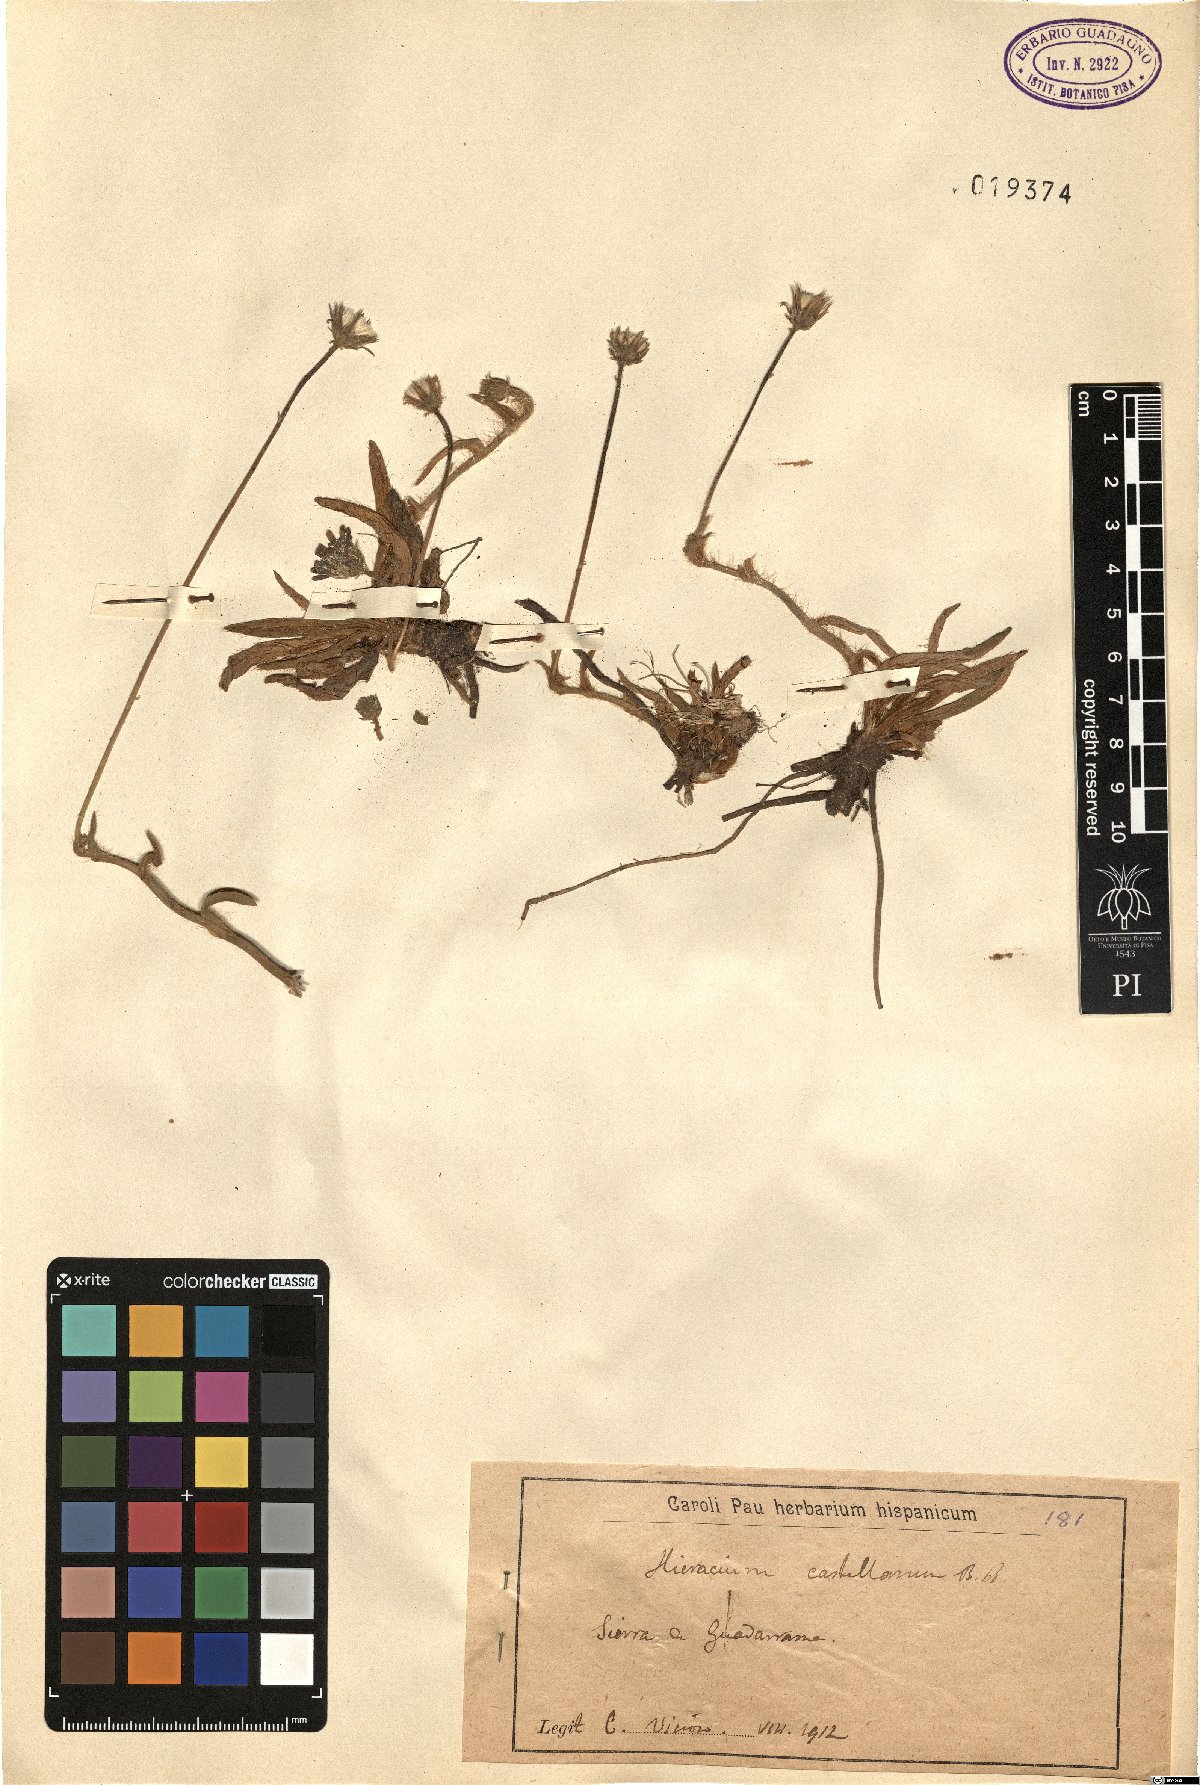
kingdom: Plantae
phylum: Tracheophyta
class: Magnoliopsida
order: Asterales
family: Asteraceae
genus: Pilosella
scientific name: Pilosella castellana
